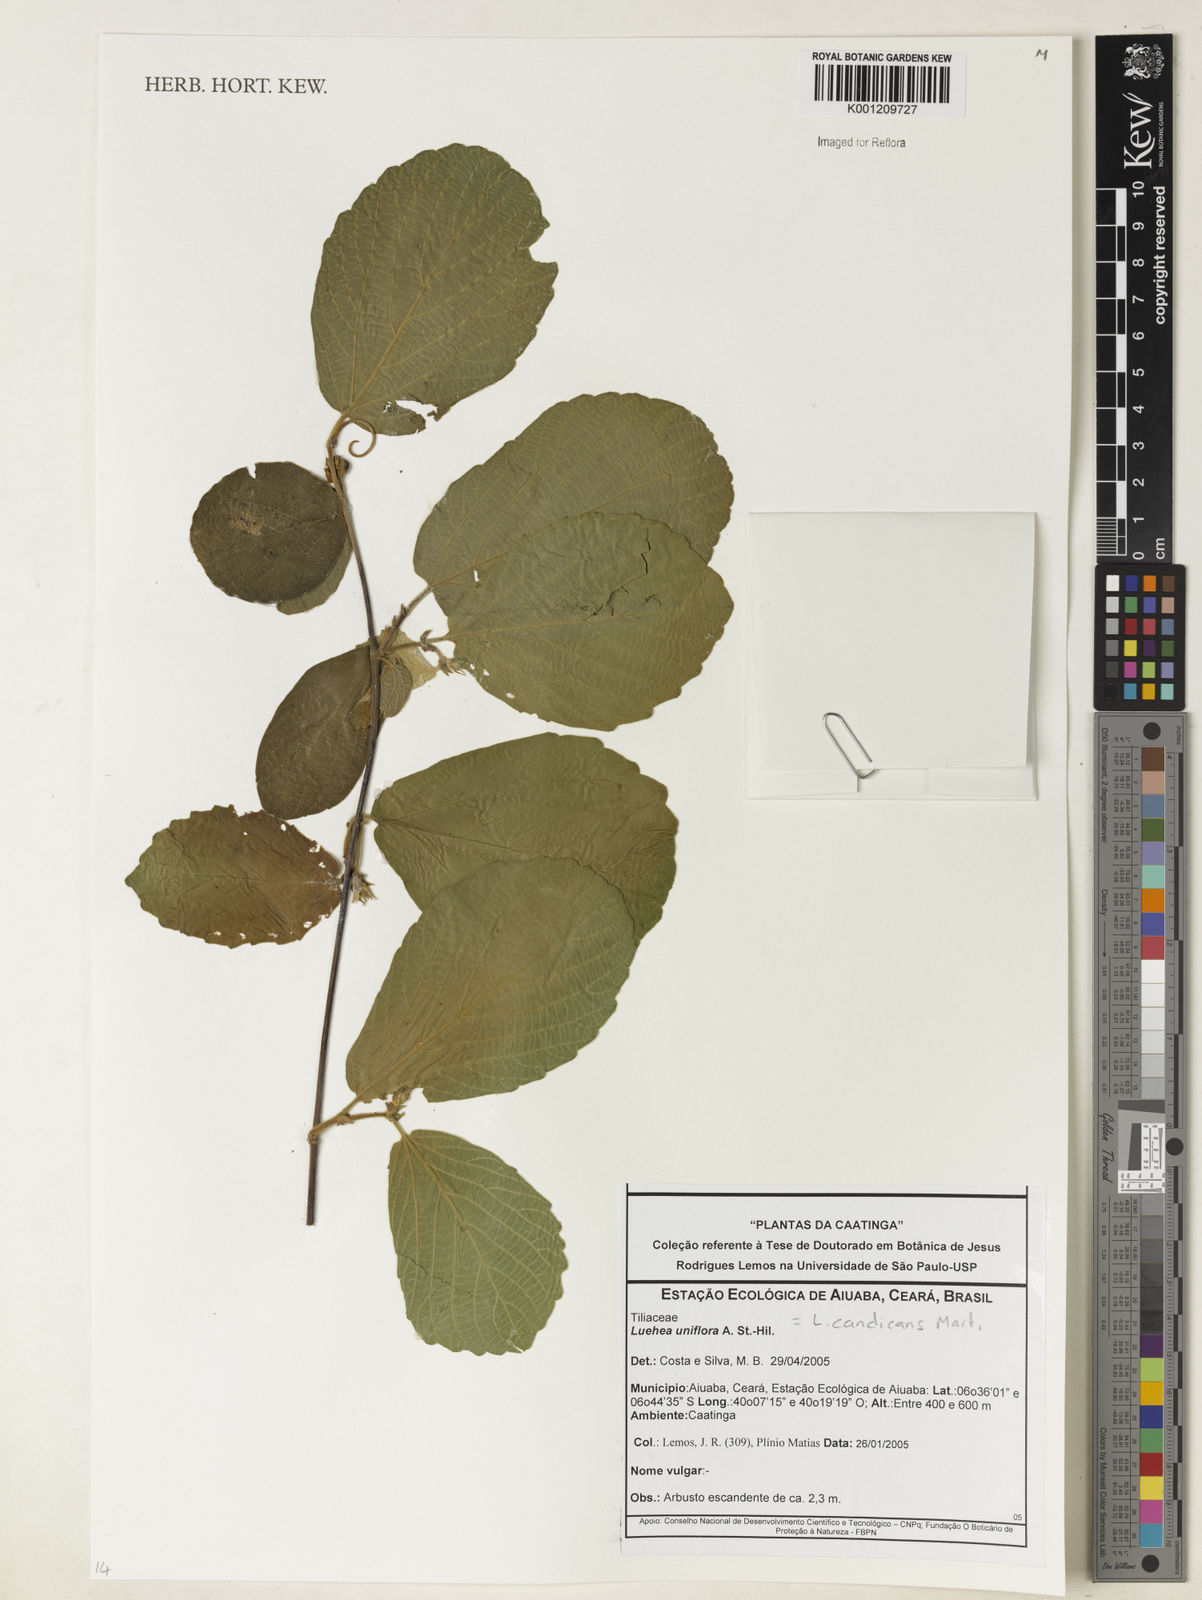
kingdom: Plantae
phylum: Tracheophyta
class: Magnoliopsida
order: Malvales
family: Malvaceae
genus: Luehea
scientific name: Luehea candicans
